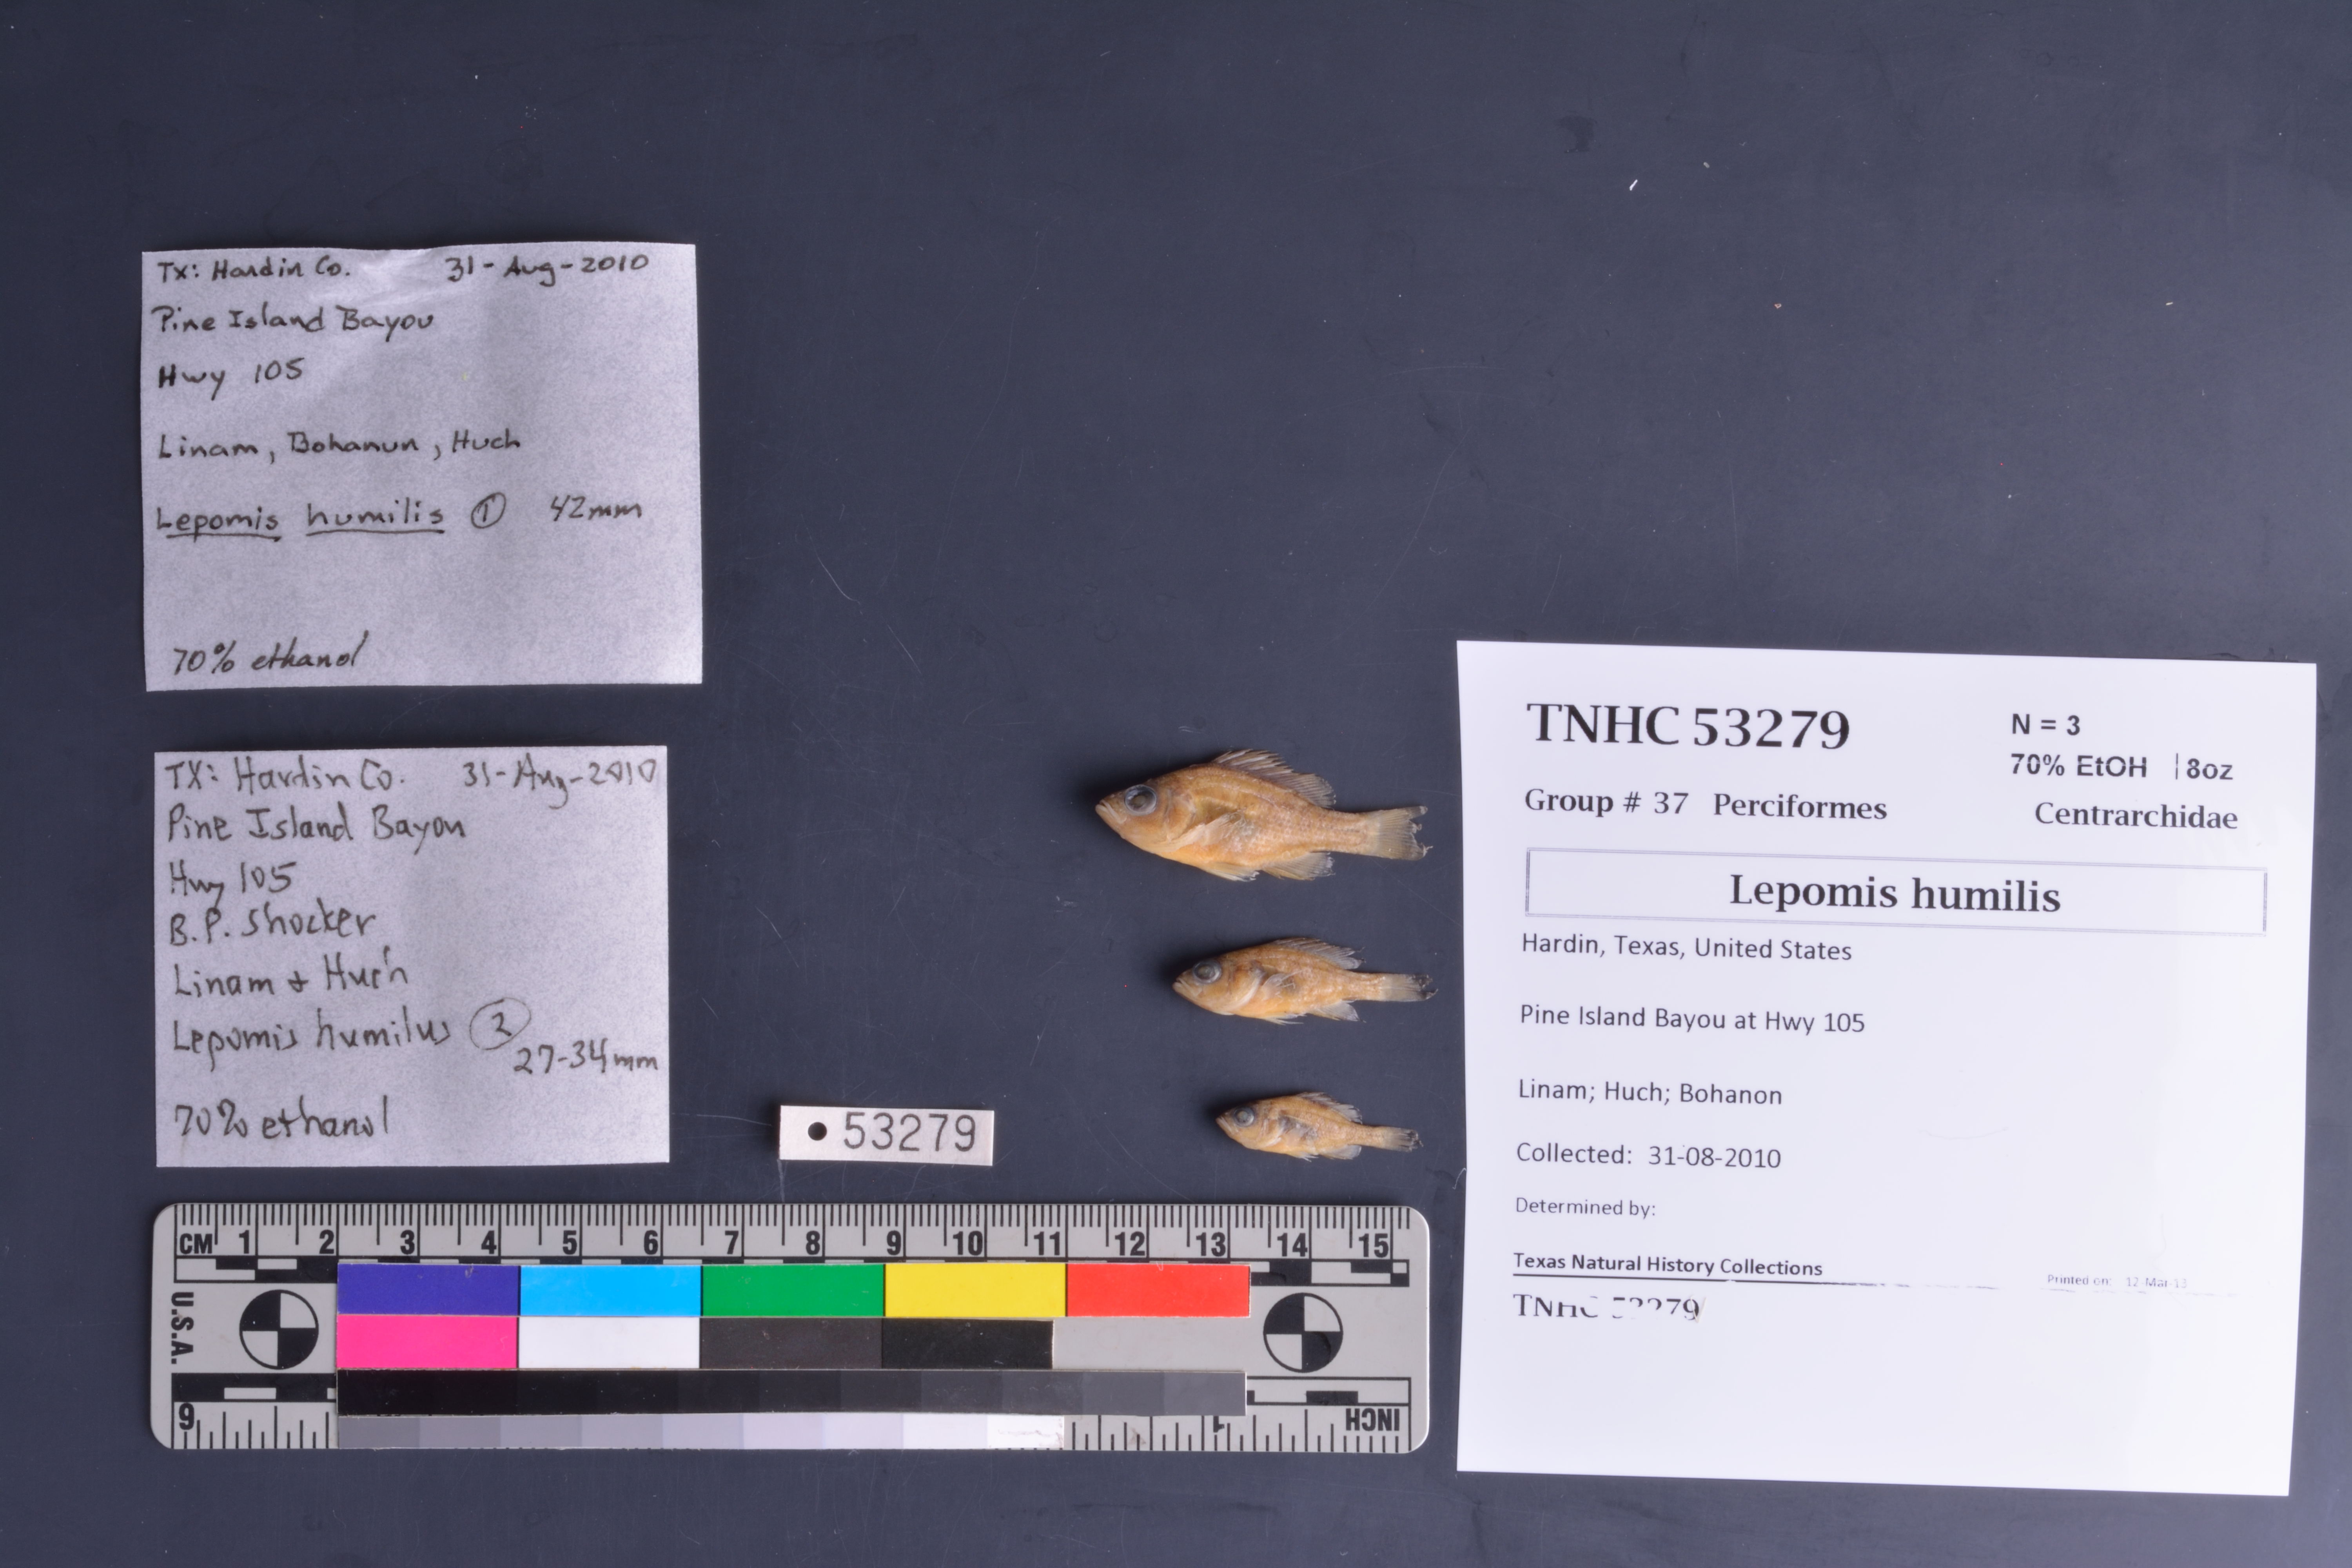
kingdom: Animalia
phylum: Chordata
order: Perciformes
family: Centrarchidae
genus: Lepomis
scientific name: Lepomis humilis
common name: Orangespotted sunfish
